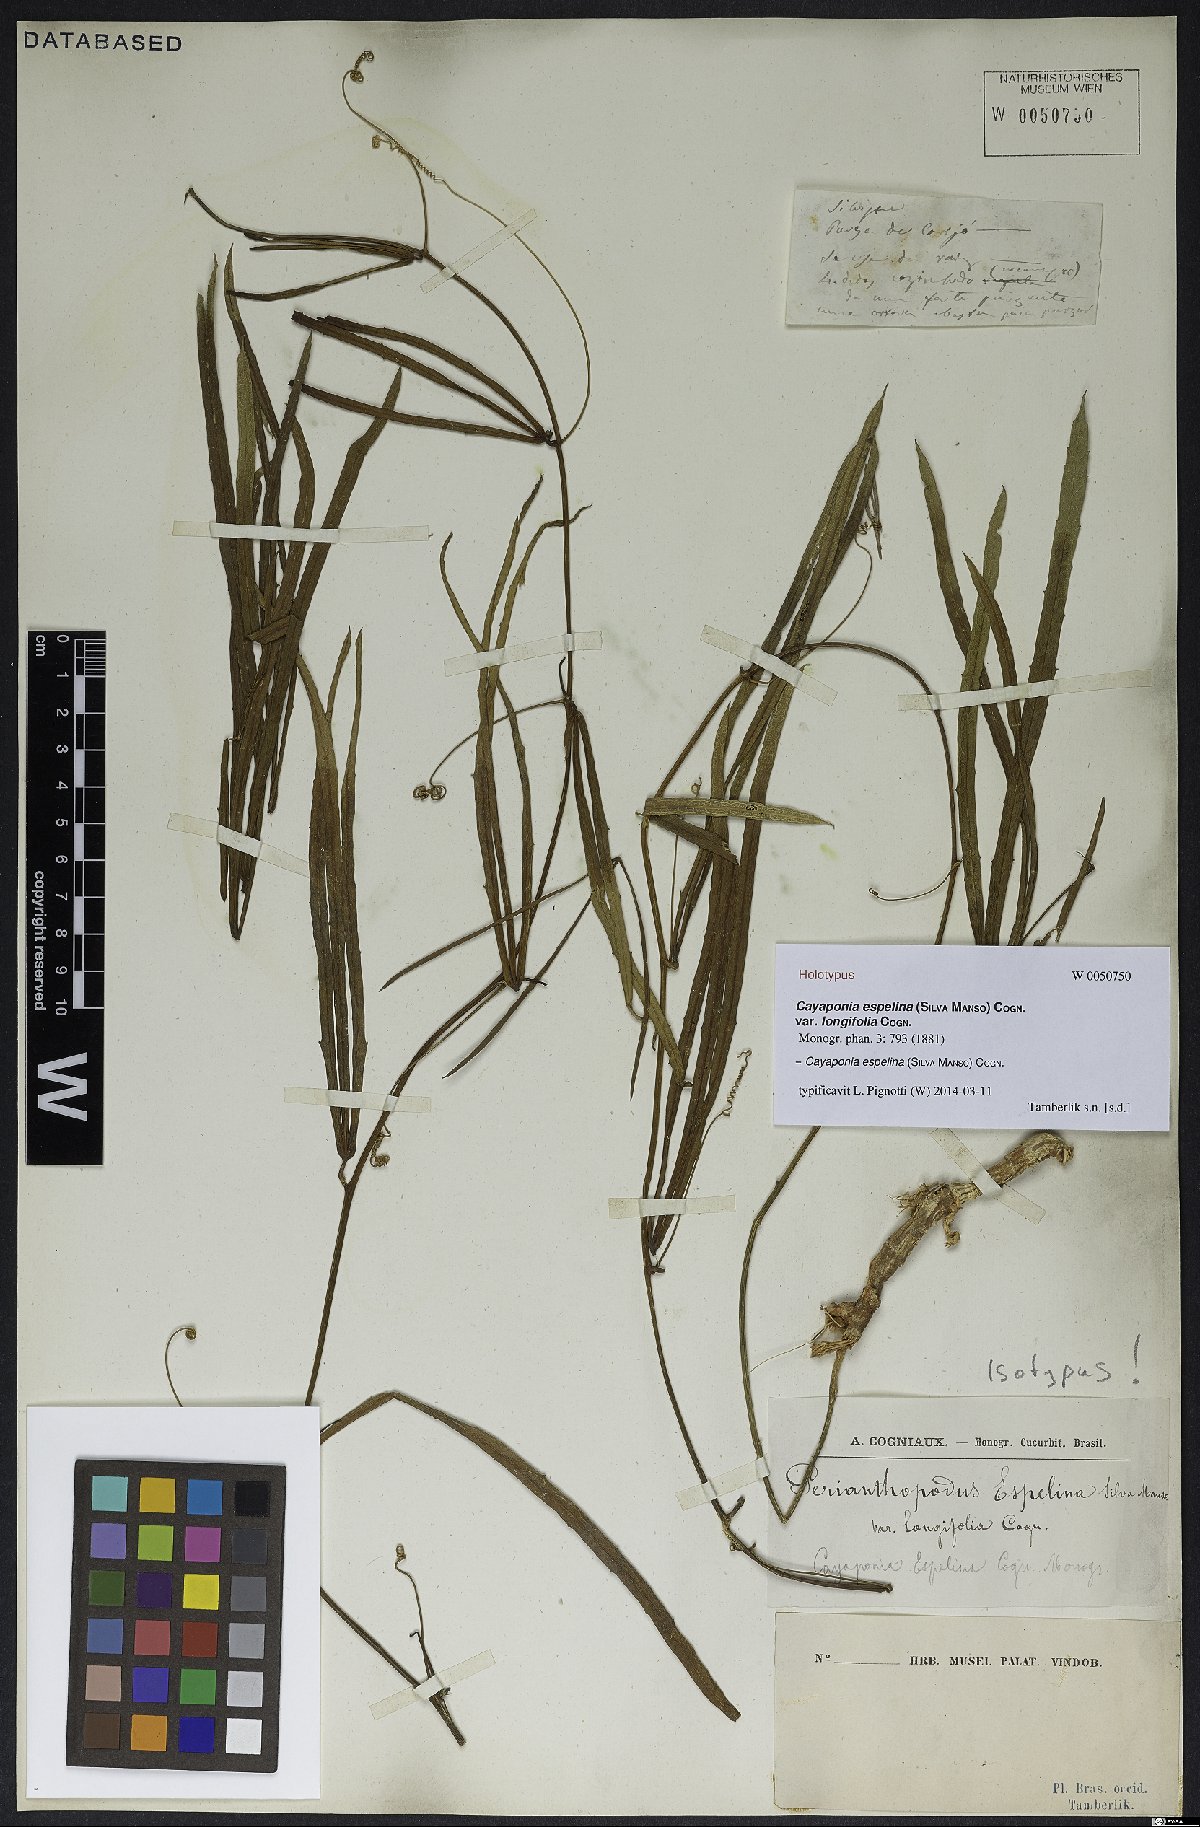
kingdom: Plantae
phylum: Tracheophyta
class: Magnoliopsida
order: Cucurbitales
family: Cucurbitaceae
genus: Cayaponia
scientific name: Cayaponia espelina
